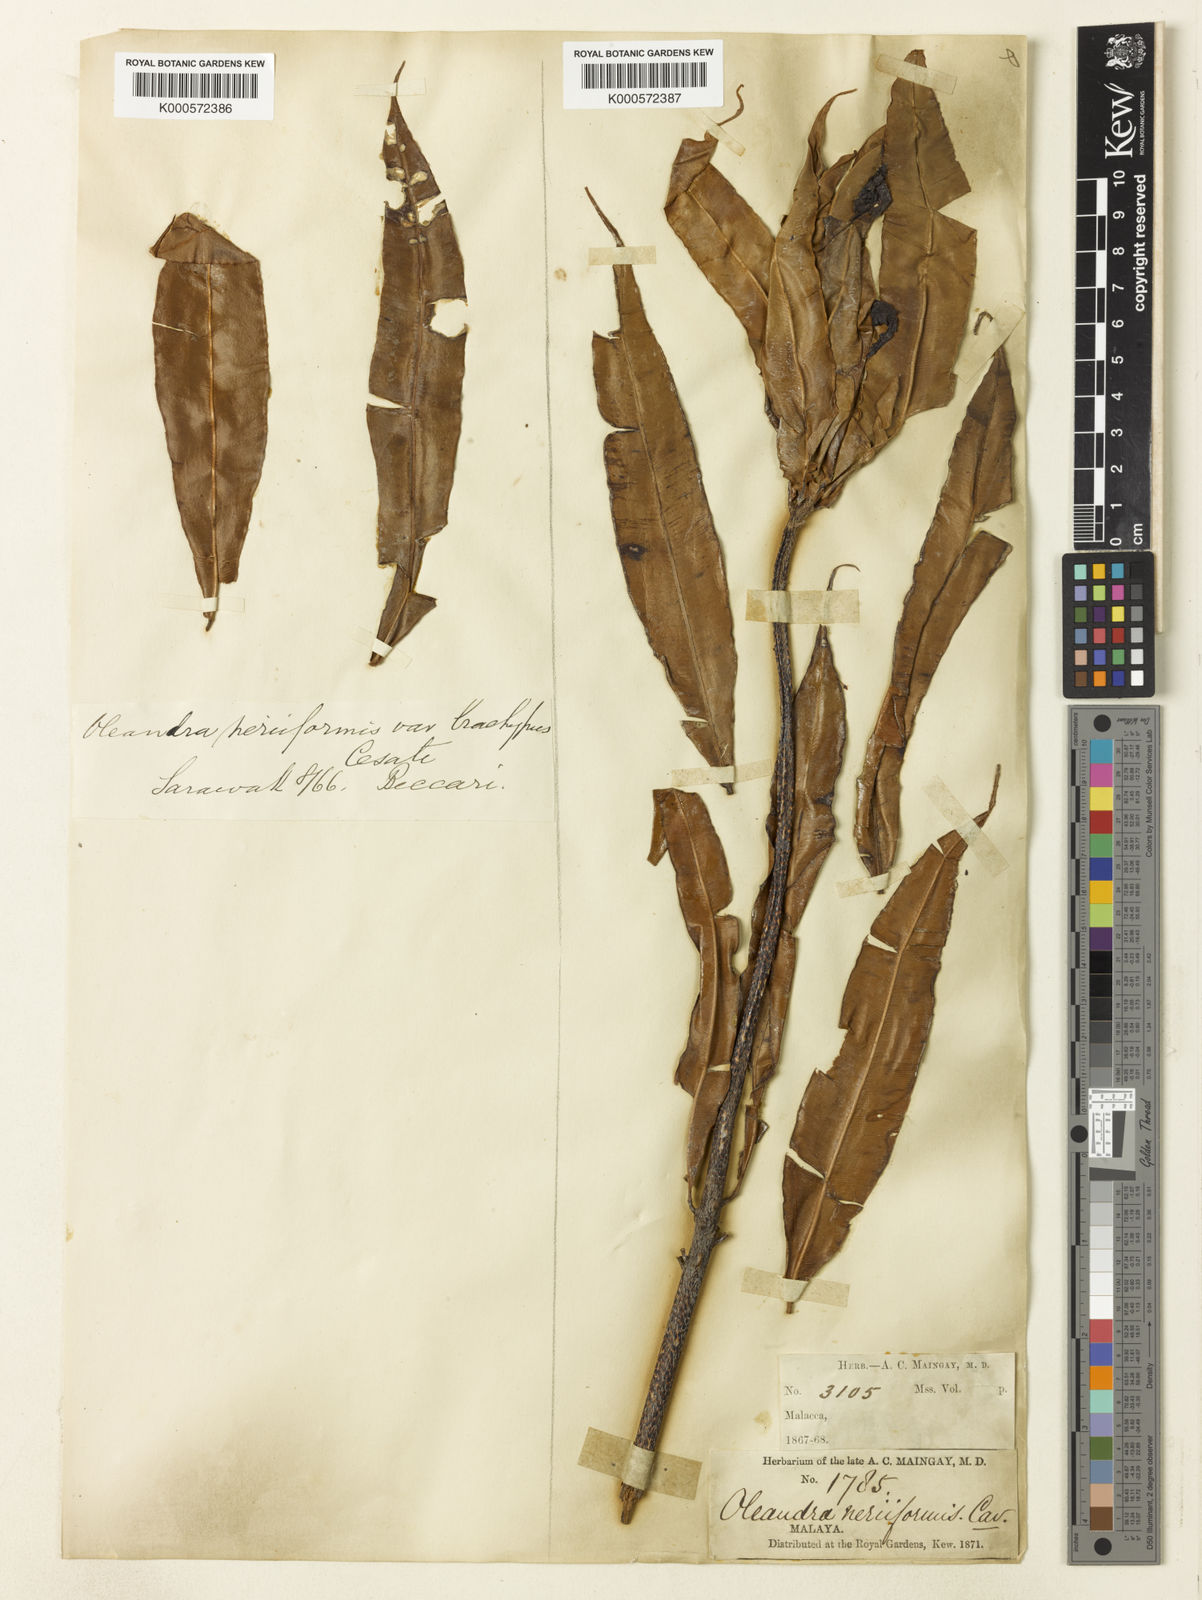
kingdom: Plantae
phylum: Tracheophyta
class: Polypodiopsida
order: Polypodiales
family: Oleandraceae
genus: Oleandra
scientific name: Oleandra neriiformis
